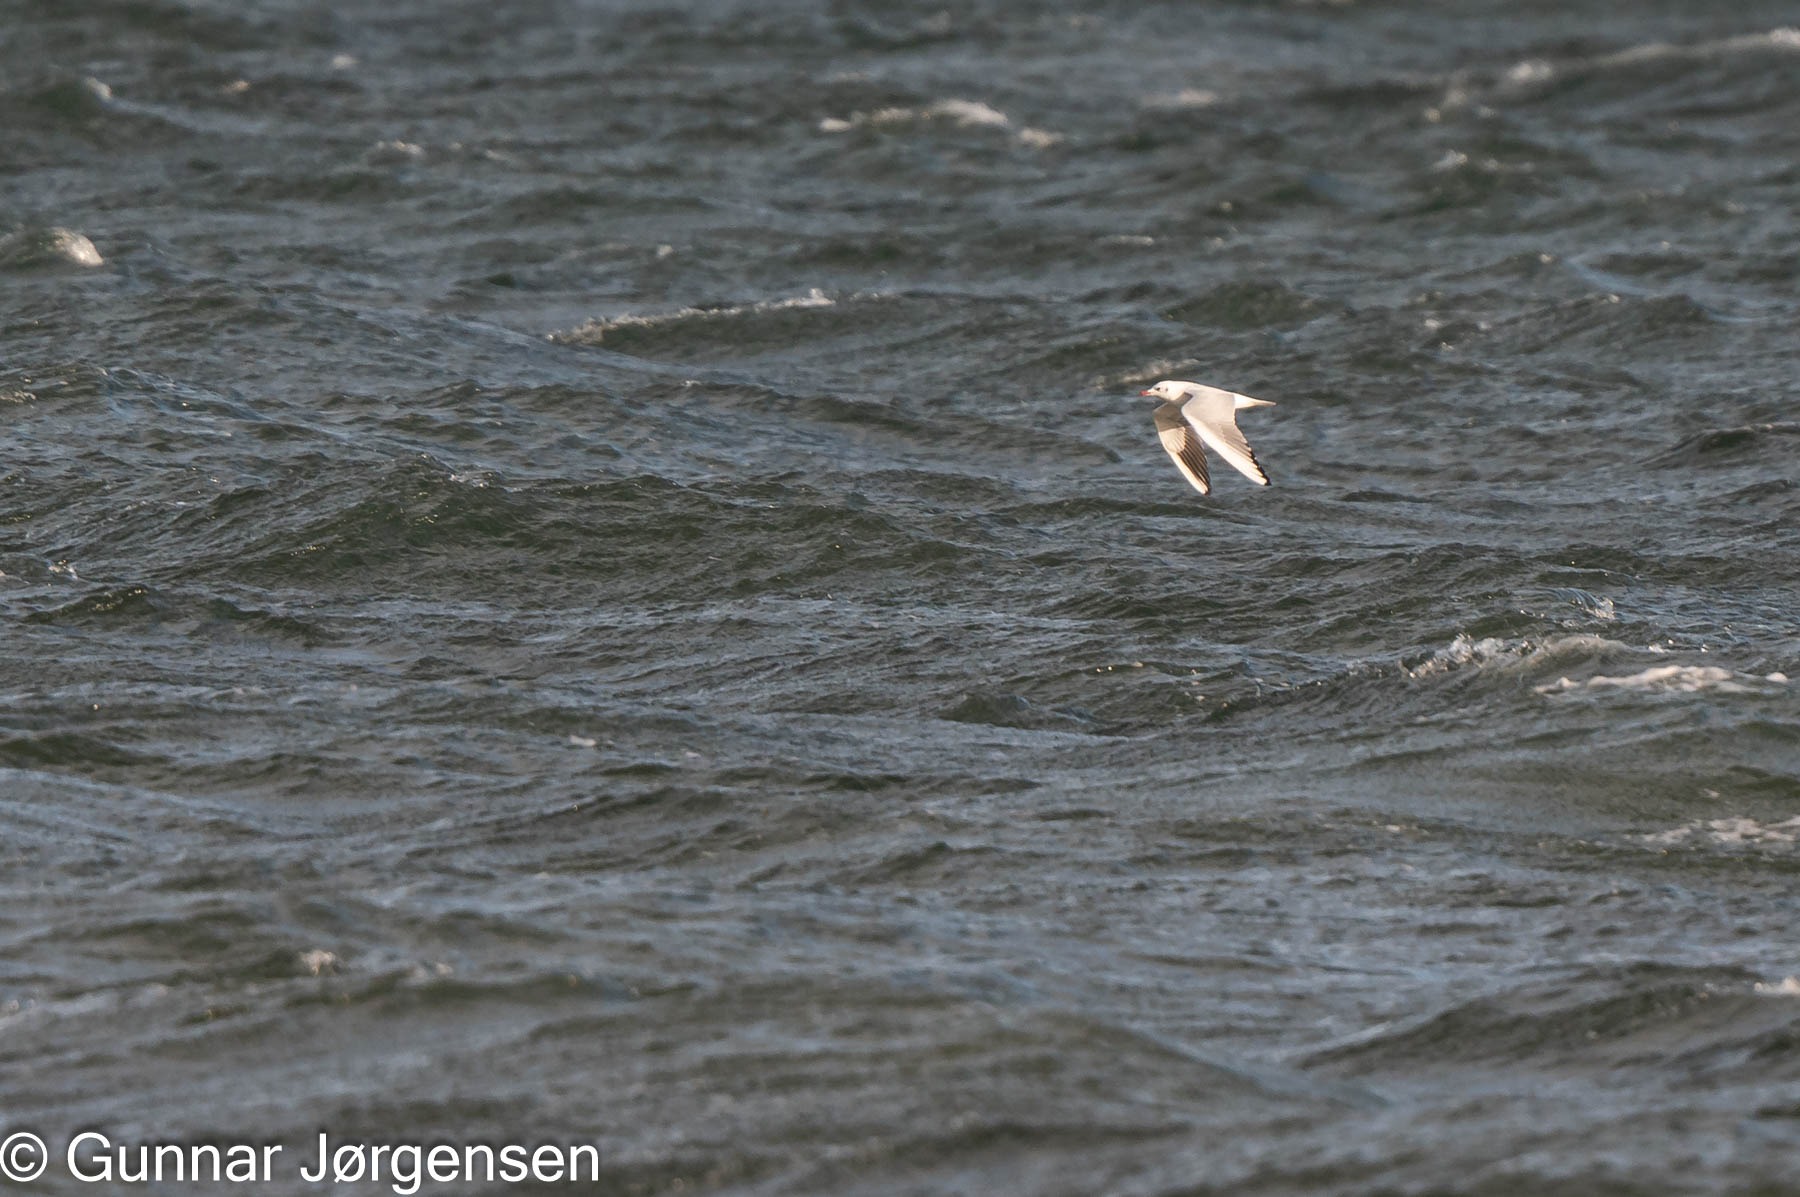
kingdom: Animalia
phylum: Chordata
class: Aves
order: Charadriiformes
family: Laridae
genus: Chroicocephalus
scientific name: Chroicocephalus ridibundus
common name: Hættemåge
